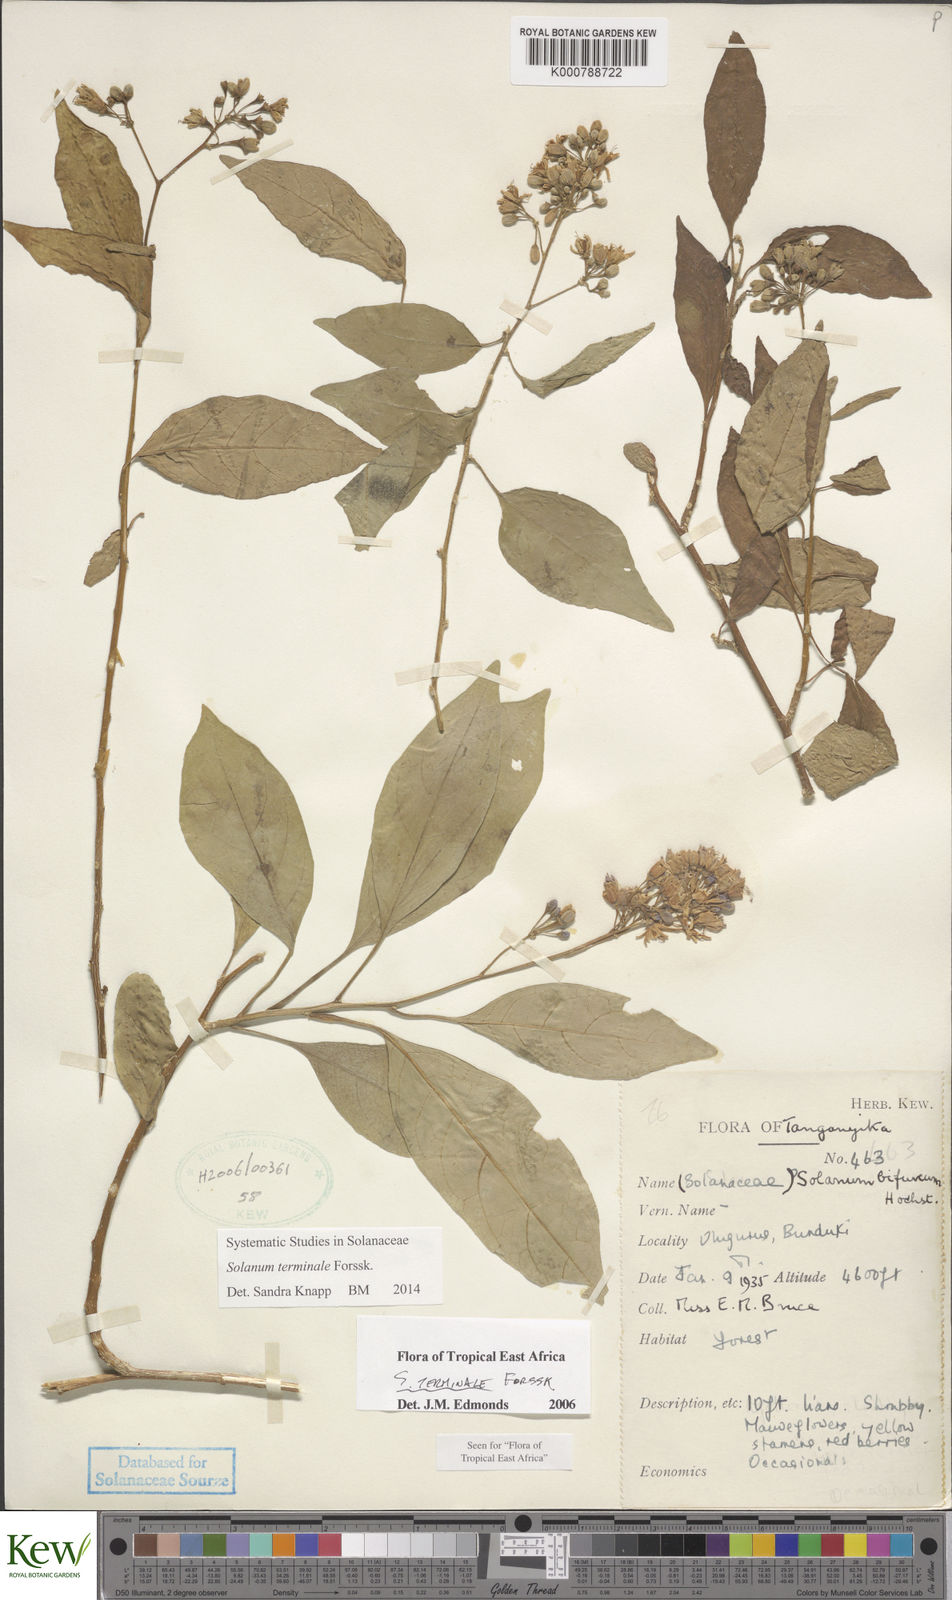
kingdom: Plantae
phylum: Tracheophyta
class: Magnoliopsida
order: Solanales
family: Solanaceae
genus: Solanum
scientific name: Solanum terminale
